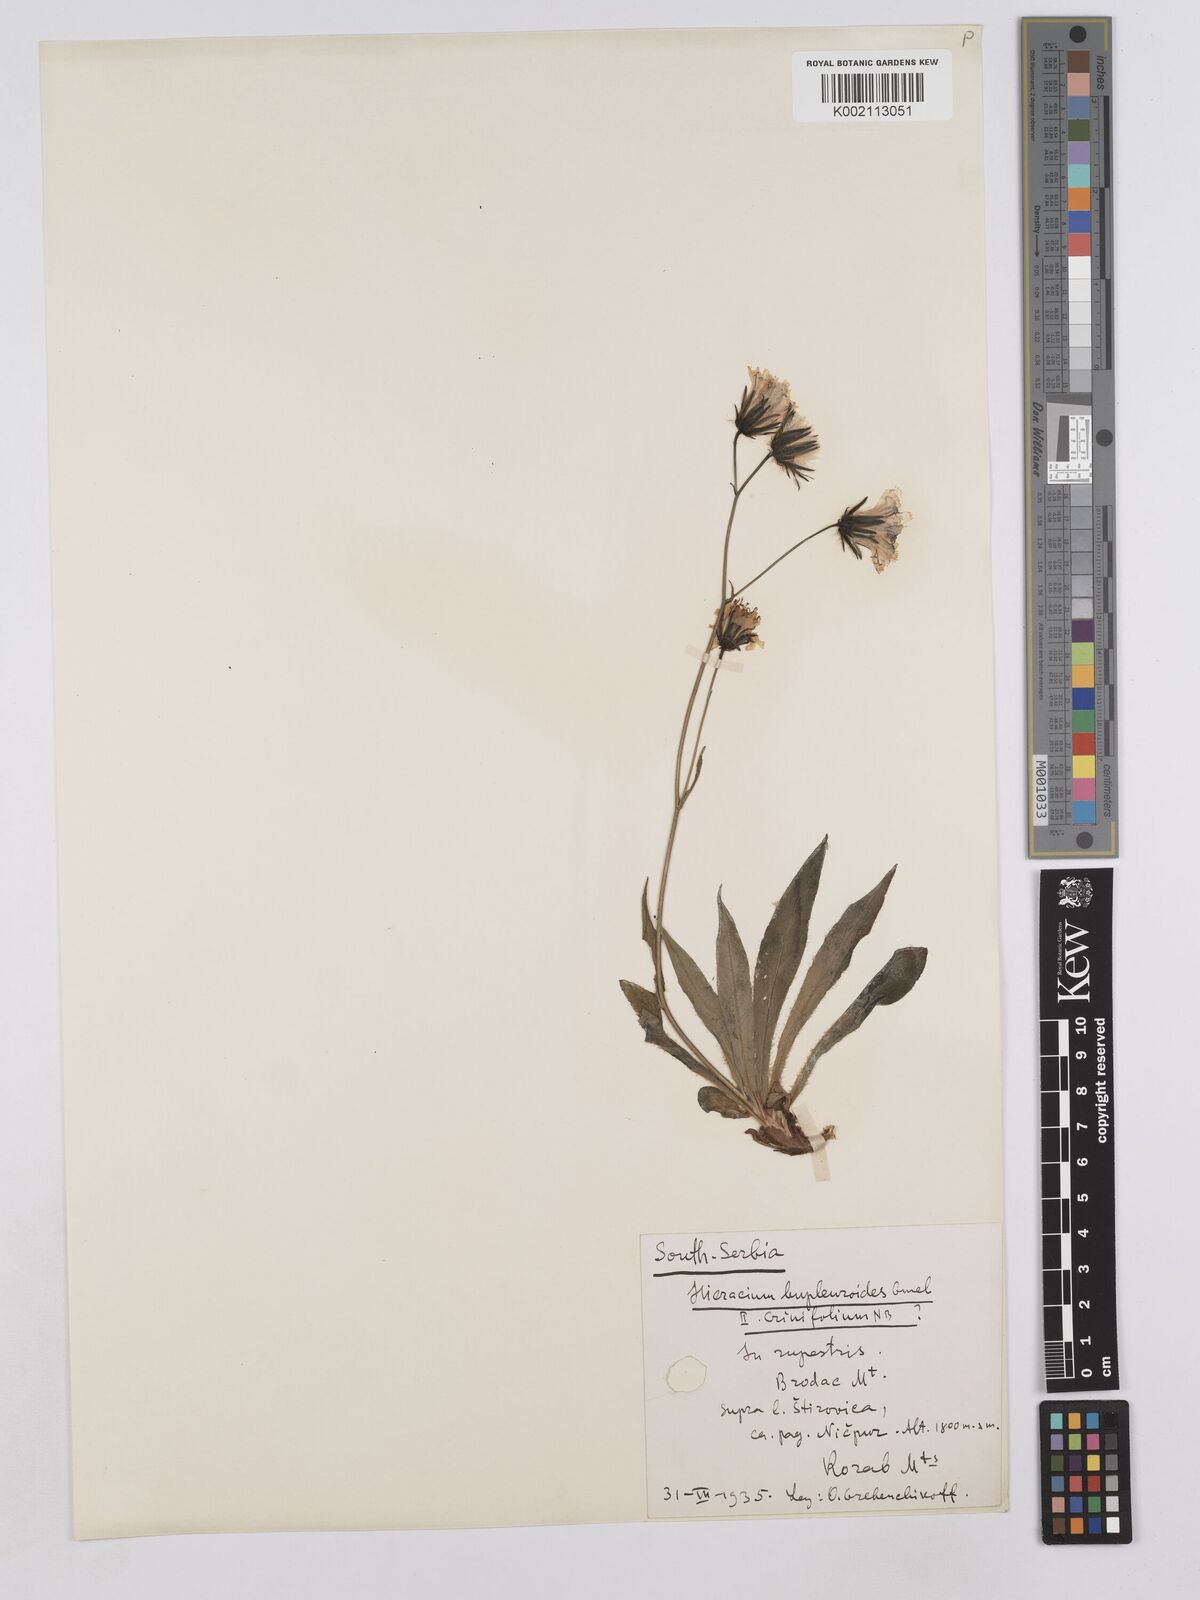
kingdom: Plantae
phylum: Tracheophyta
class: Magnoliopsida
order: Asterales
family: Asteraceae
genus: Hieracium
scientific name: Hieracium bupleuroides
